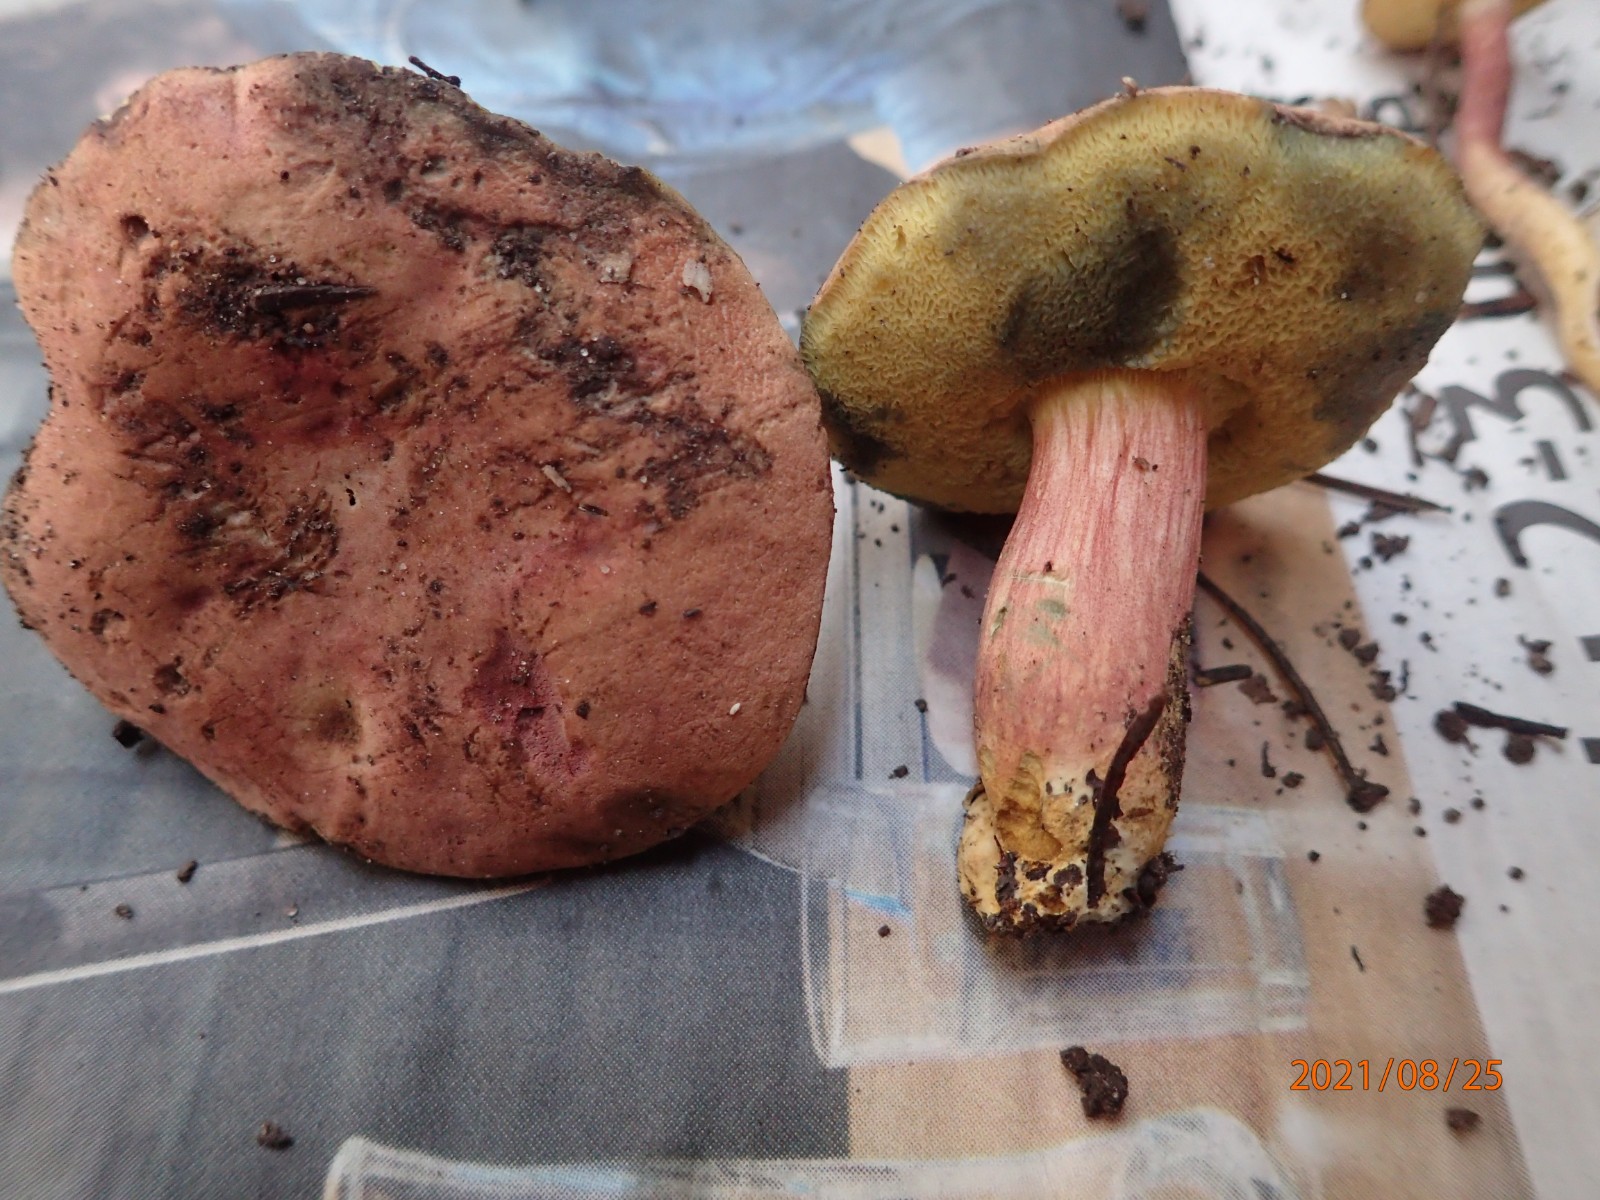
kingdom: Fungi
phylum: Basidiomycota
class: Agaricomycetes
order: Boletales
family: Boletaceae
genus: Imleria
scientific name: Imleria badia
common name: brunstokket rørhat
